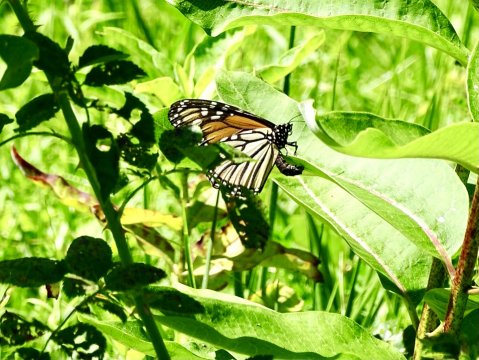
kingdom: Animalia
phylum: Arthropoda
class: Insecta
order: Lepidoptera
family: Nymphalidae
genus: Danaus
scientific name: Danaus plexippus
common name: Monarch
